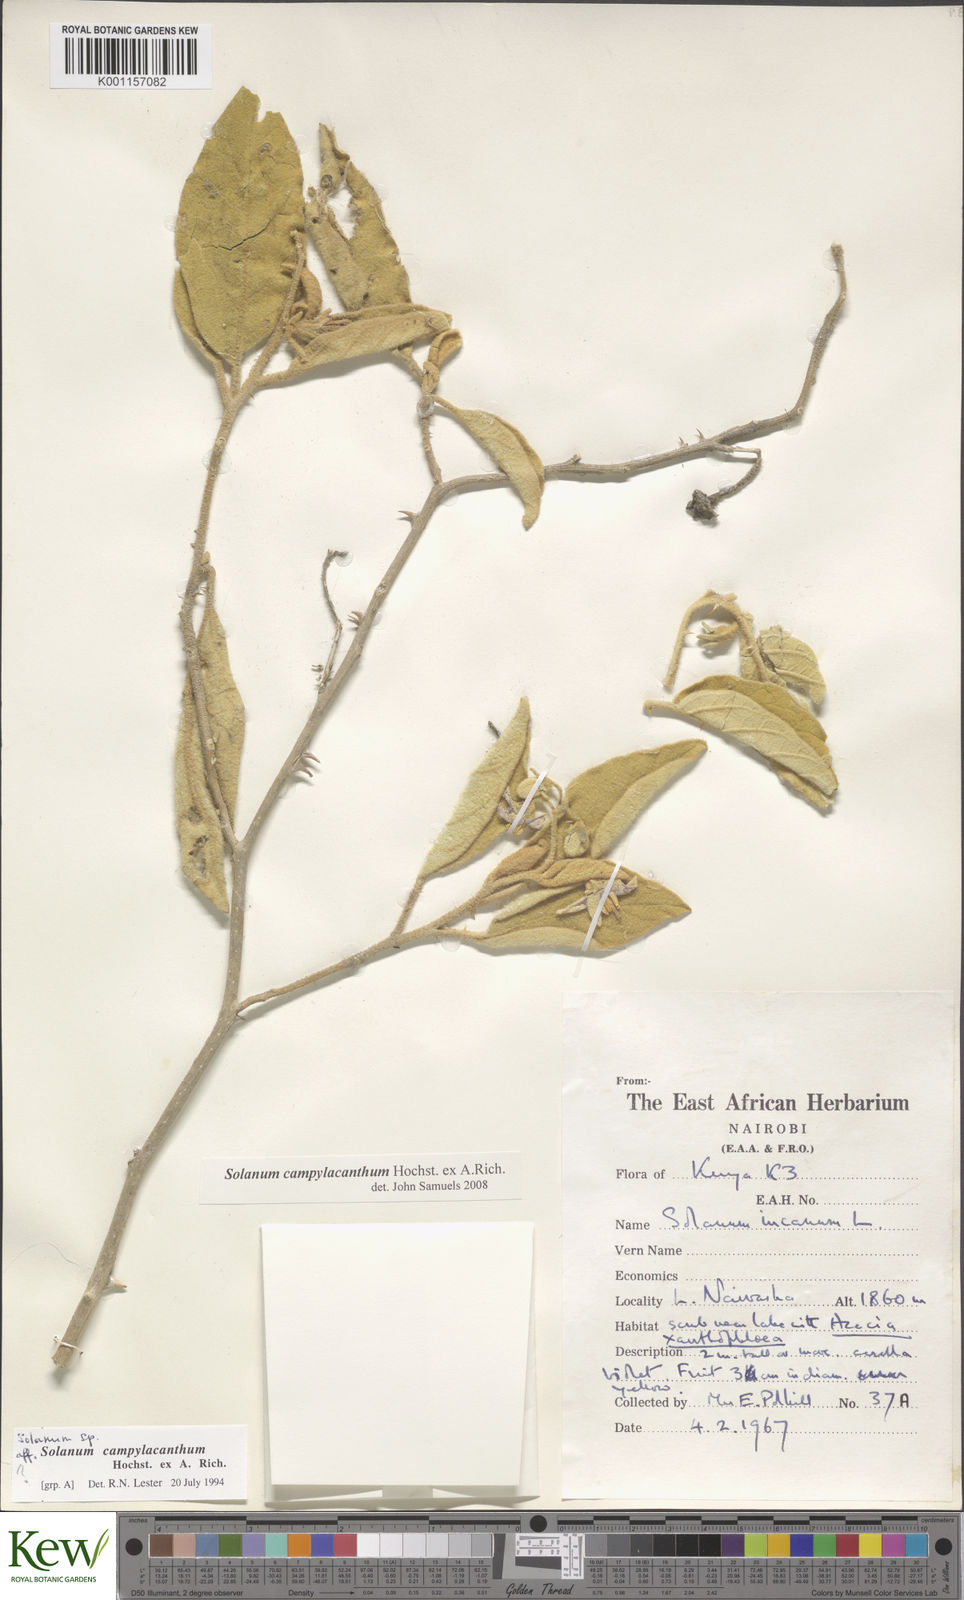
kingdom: Plantae
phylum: Tracheophyta
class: Magnoliopsida
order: Solanales
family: Solanaceae
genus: Solanum
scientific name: Solanum campylacanthum
